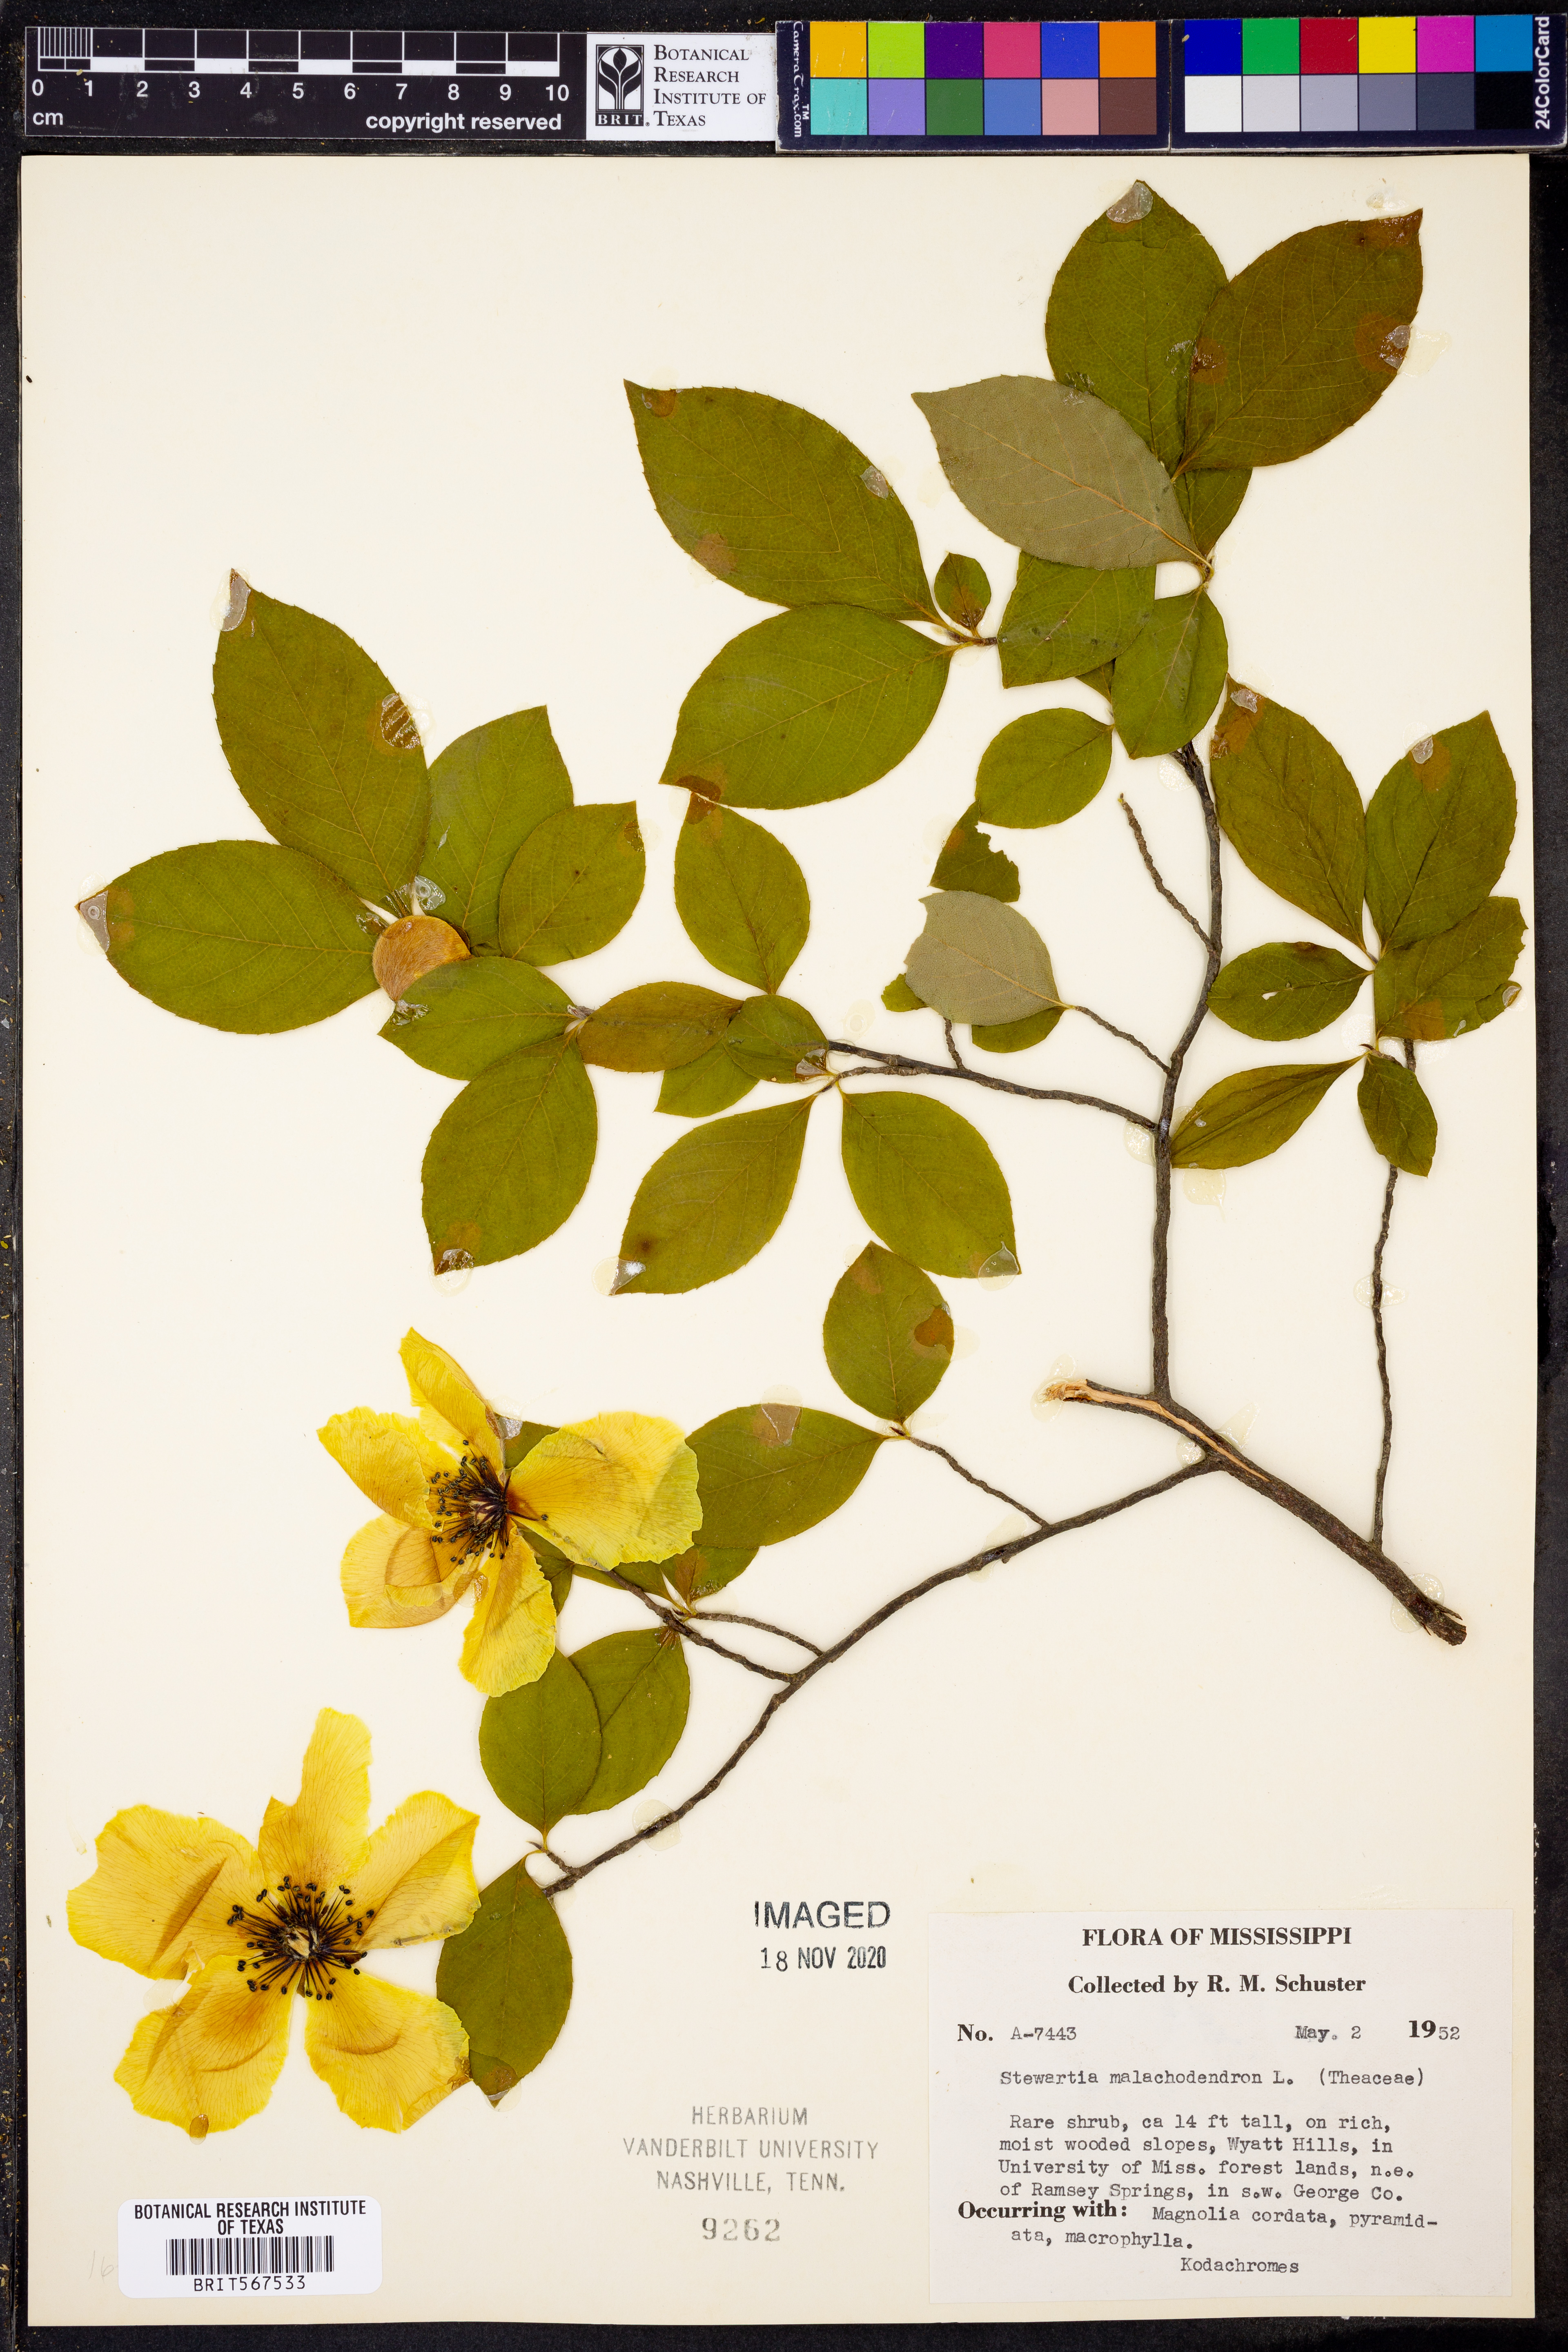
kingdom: Plantae
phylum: Tracheophyta
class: Magnoliopsida
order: Ericales
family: Theaceae
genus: Stewartia
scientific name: Stewartia malacodendron
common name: Virginia stewartia
